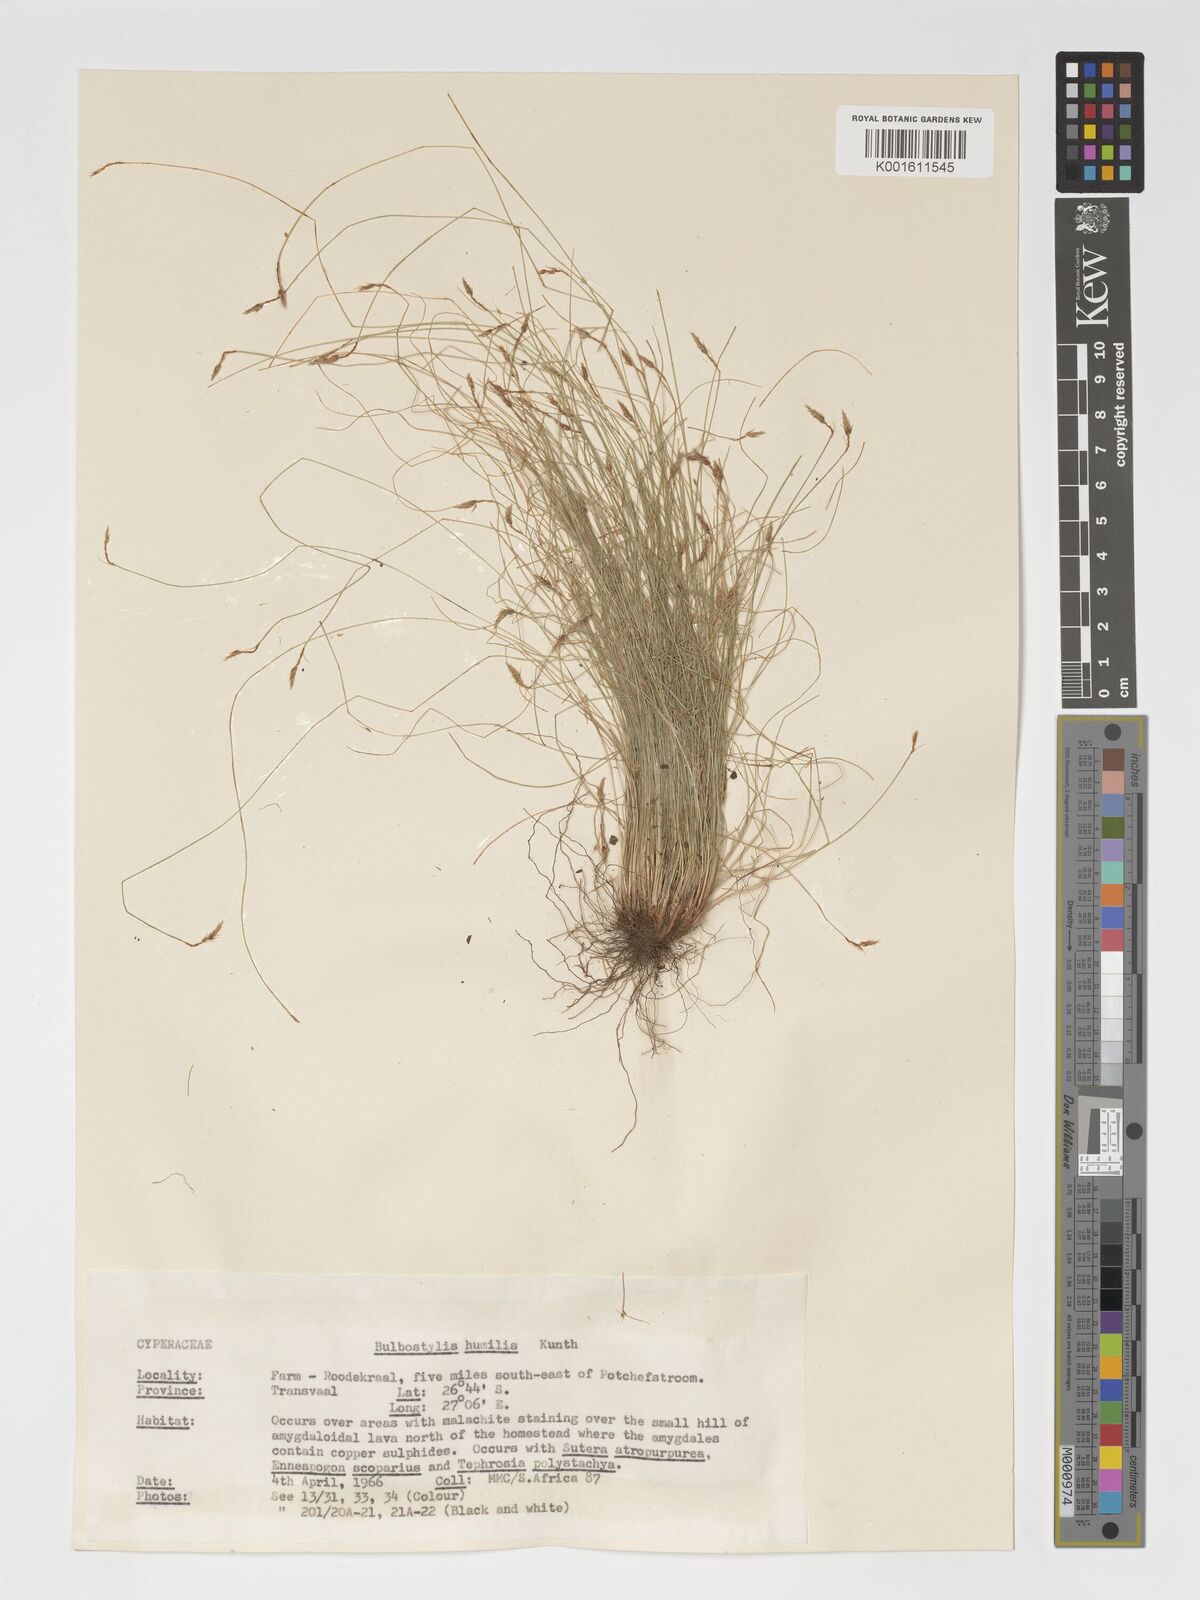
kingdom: Plantae
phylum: Tracheophyta
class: Liliopsida
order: Poales
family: Cyperaceae
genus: Bulbostylis
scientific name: Bulbostylis humilis
